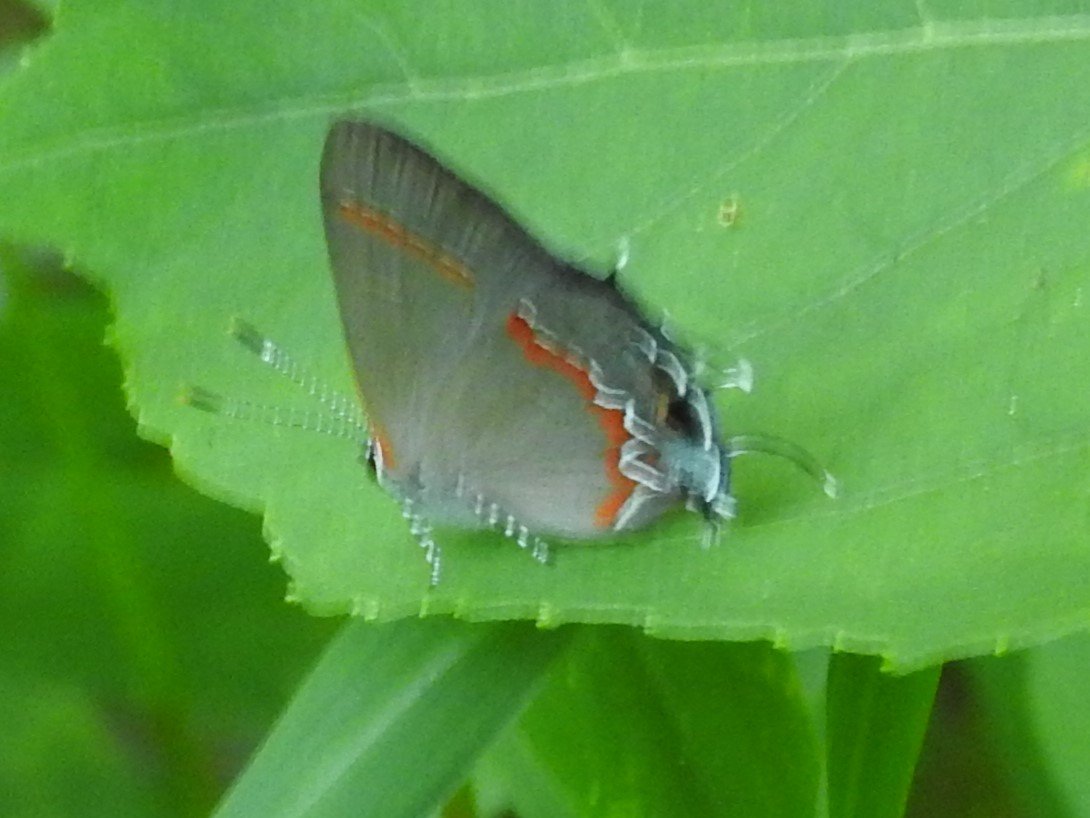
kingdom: Animalia
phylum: Arthropoda
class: Insecta
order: Lepidoptera
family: Lycaenidae
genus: Calycopis
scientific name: Calycopis cecrops
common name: Red-banded Hairstreak
